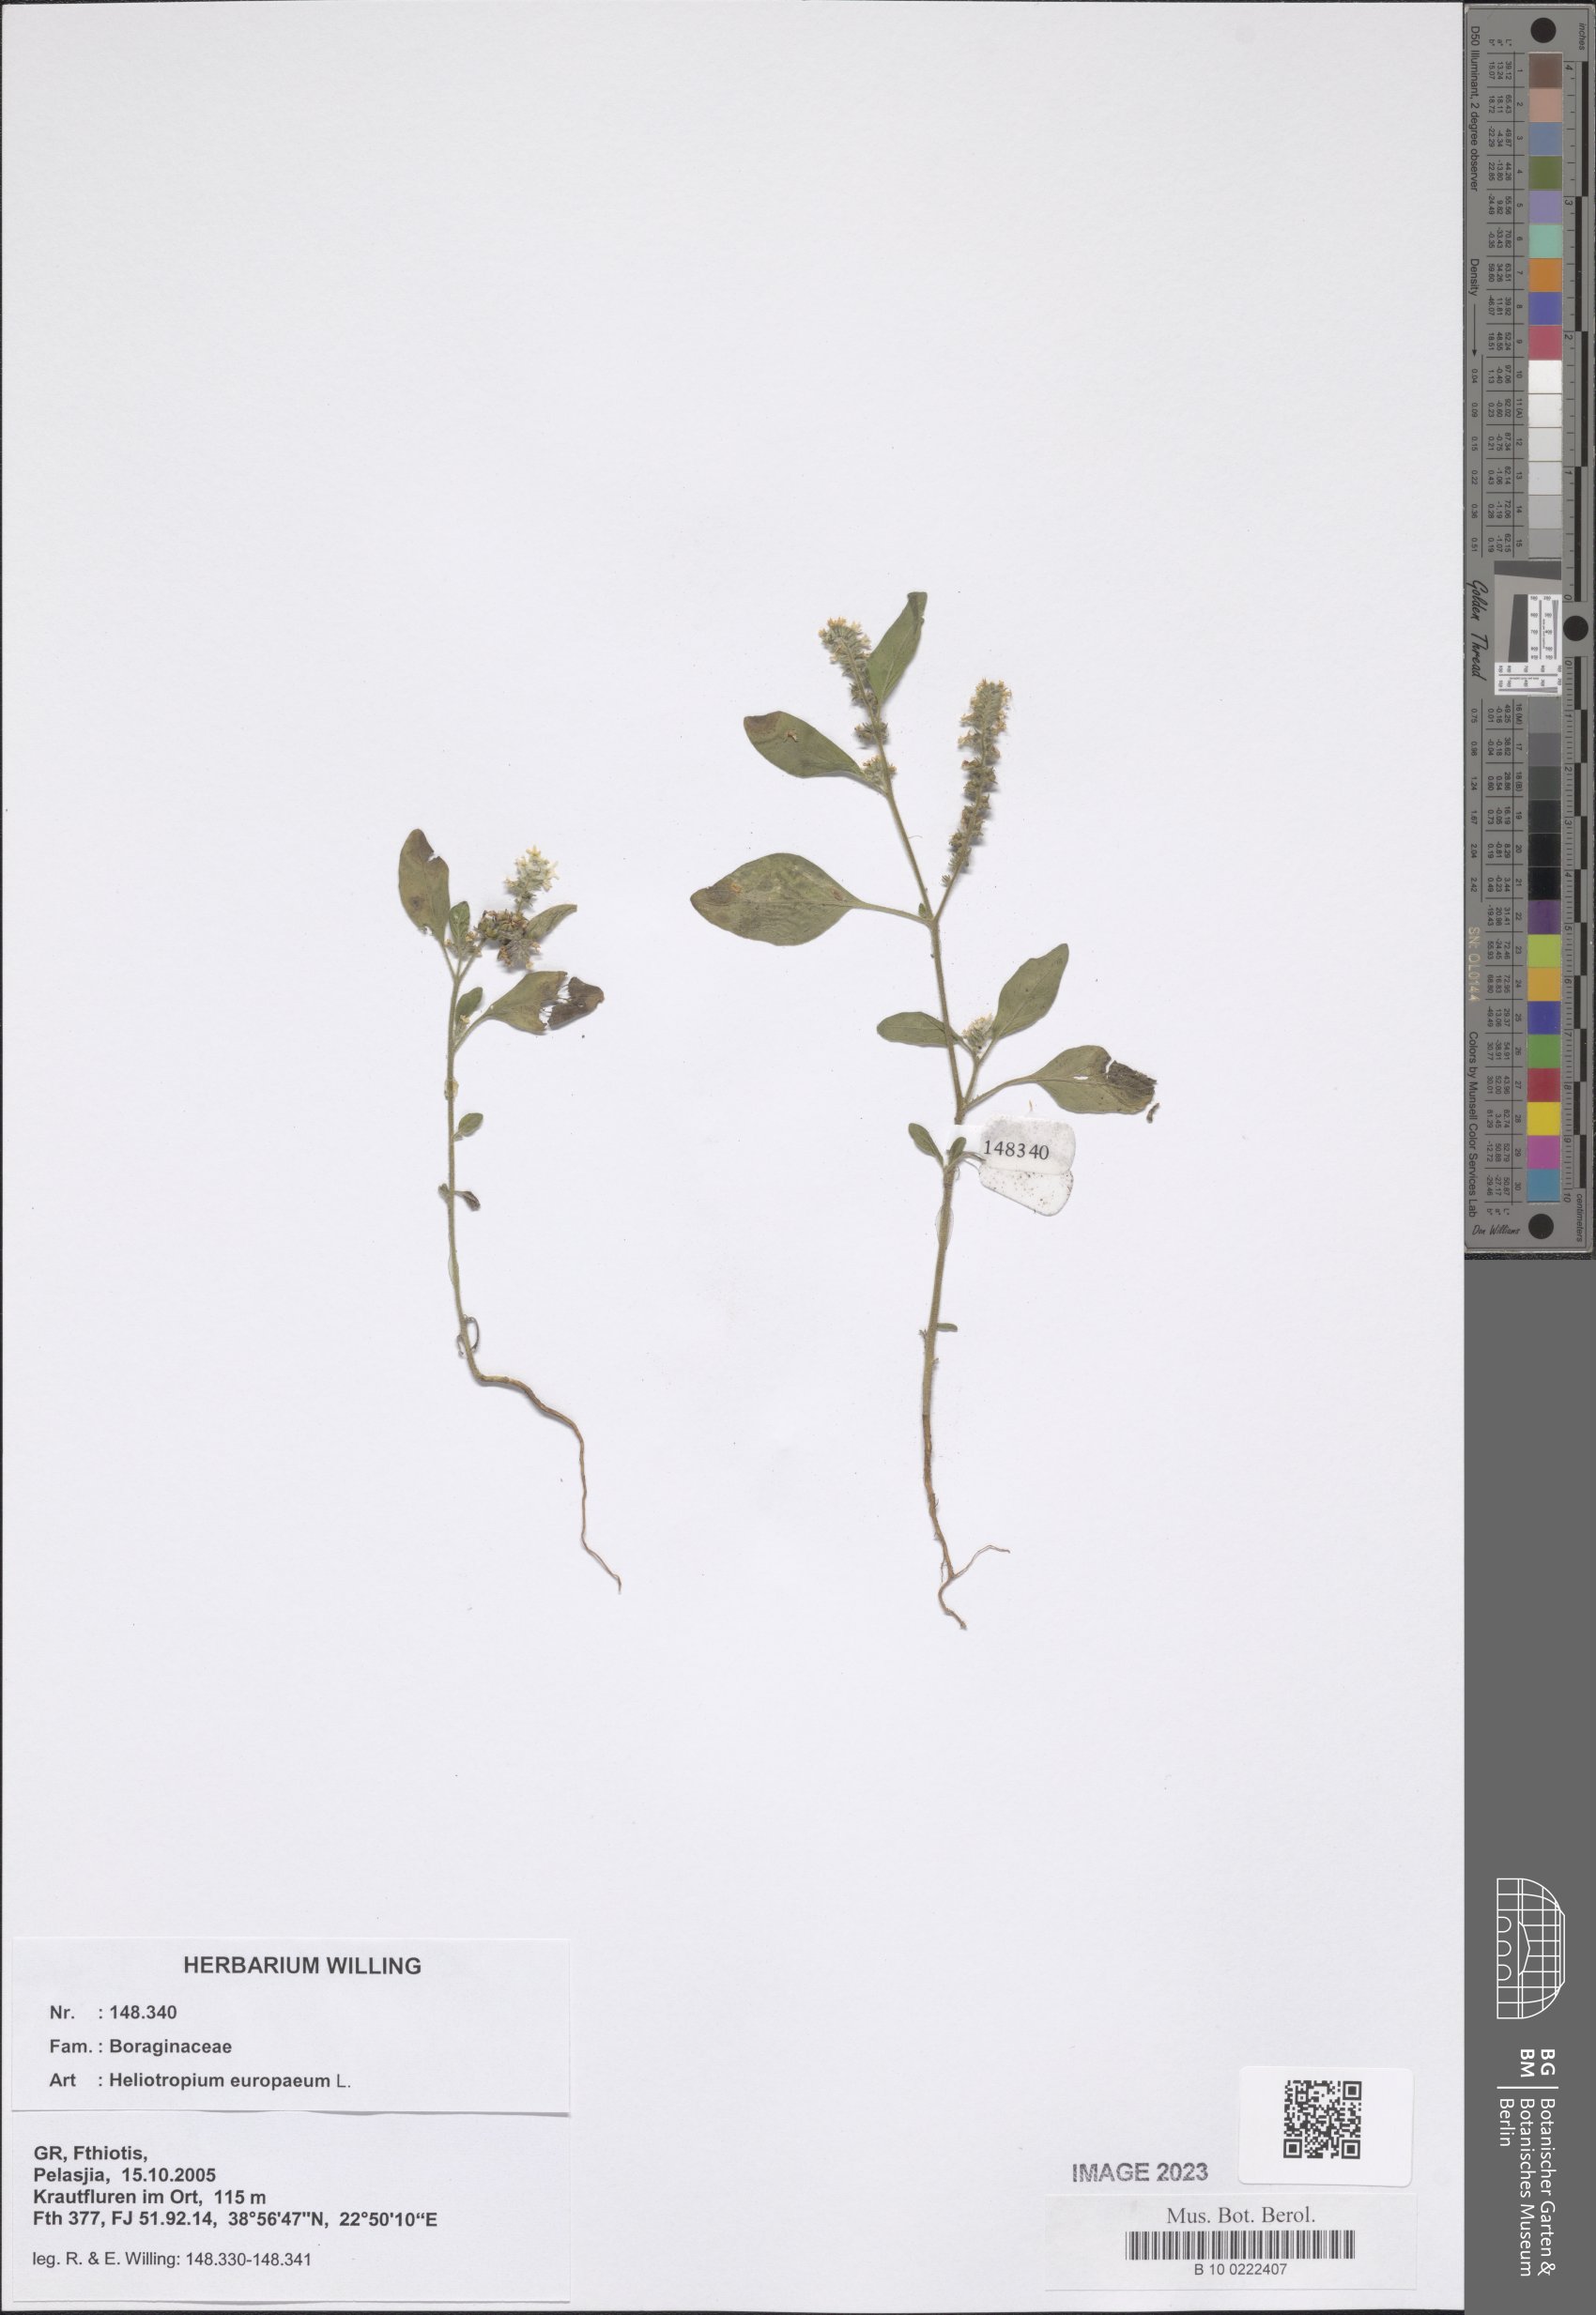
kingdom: Plantae
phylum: Tracheophyta
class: Magnoliopsida
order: Boraginales
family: Heliotropiaceae
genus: Heliotropium
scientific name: Heliotropium europaeum
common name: European heliotrope
